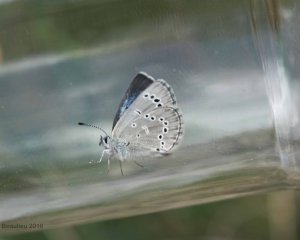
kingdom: Animalia
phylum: Arthropoda
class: Insecta
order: Lepidoptera
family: Lycaenidae
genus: Glaucopsyche
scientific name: Glaucopsyche lygdamus
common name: Silvery Blue
